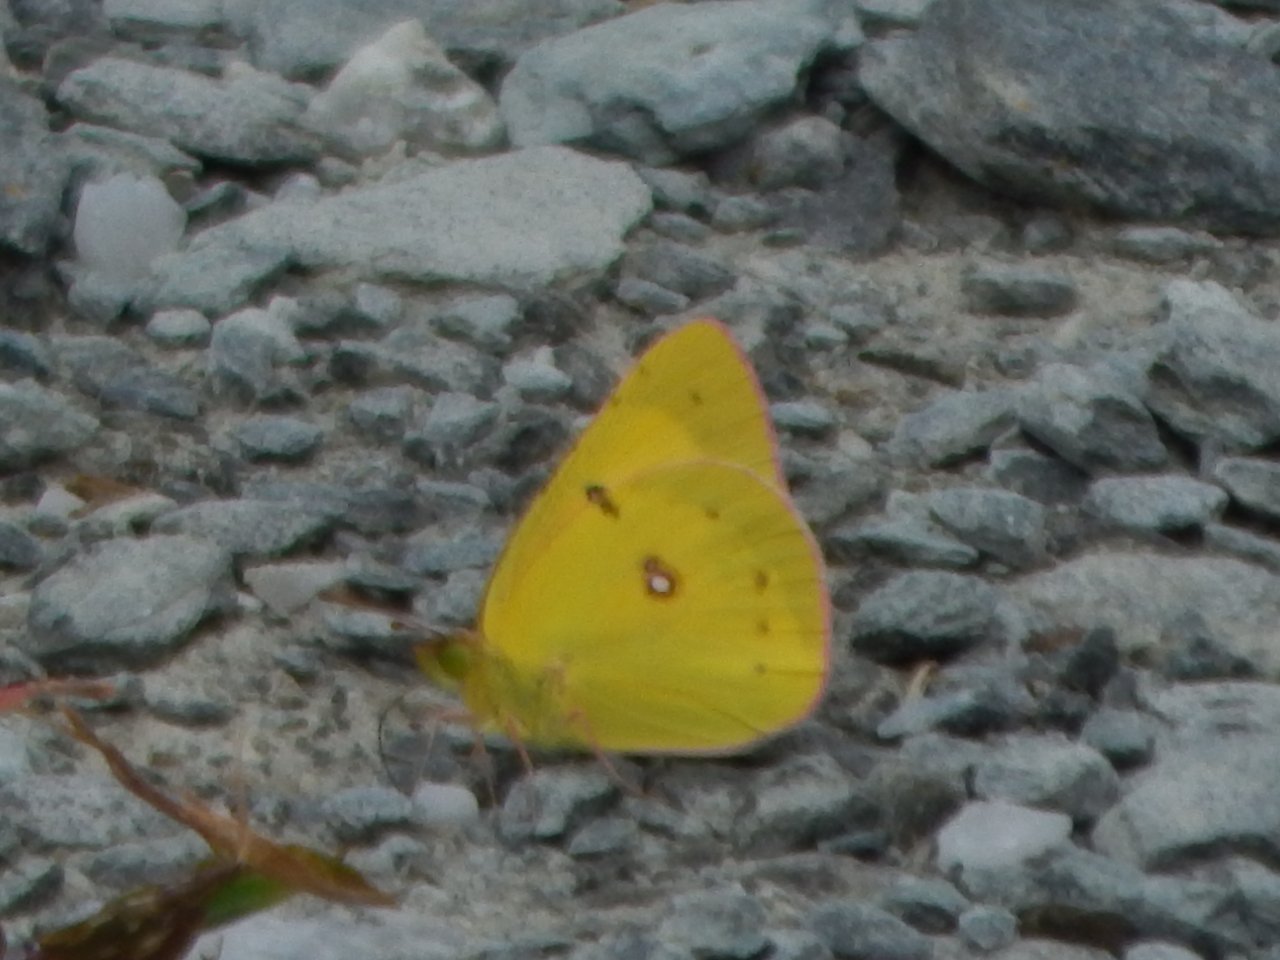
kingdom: Animalia
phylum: Arthropoda
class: Insecta
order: Lepidoptera
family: Pieridae
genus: Colias
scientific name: Colias eurytheme
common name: Orange Sulphur
